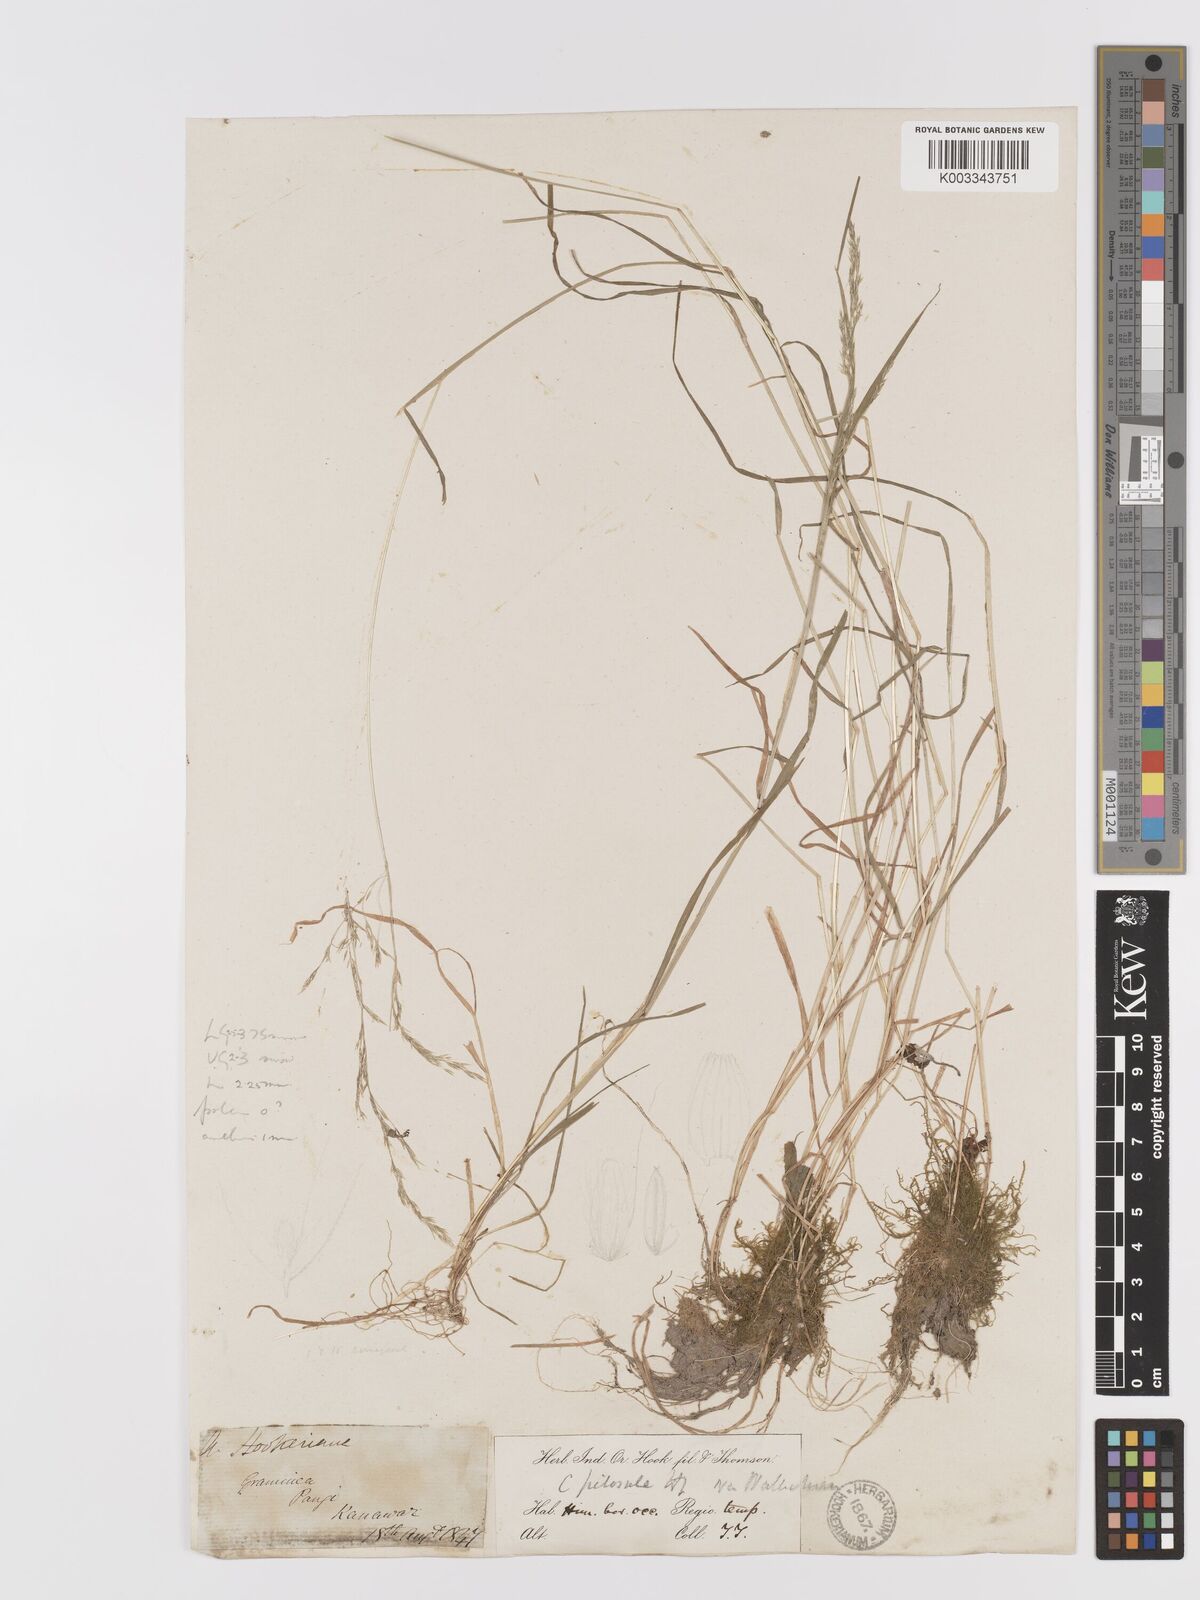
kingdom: Plantae
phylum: Tracheophyta
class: Liliopsida
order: Poales
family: Poaceae
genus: Agrostis
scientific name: Agrostis pilosula
